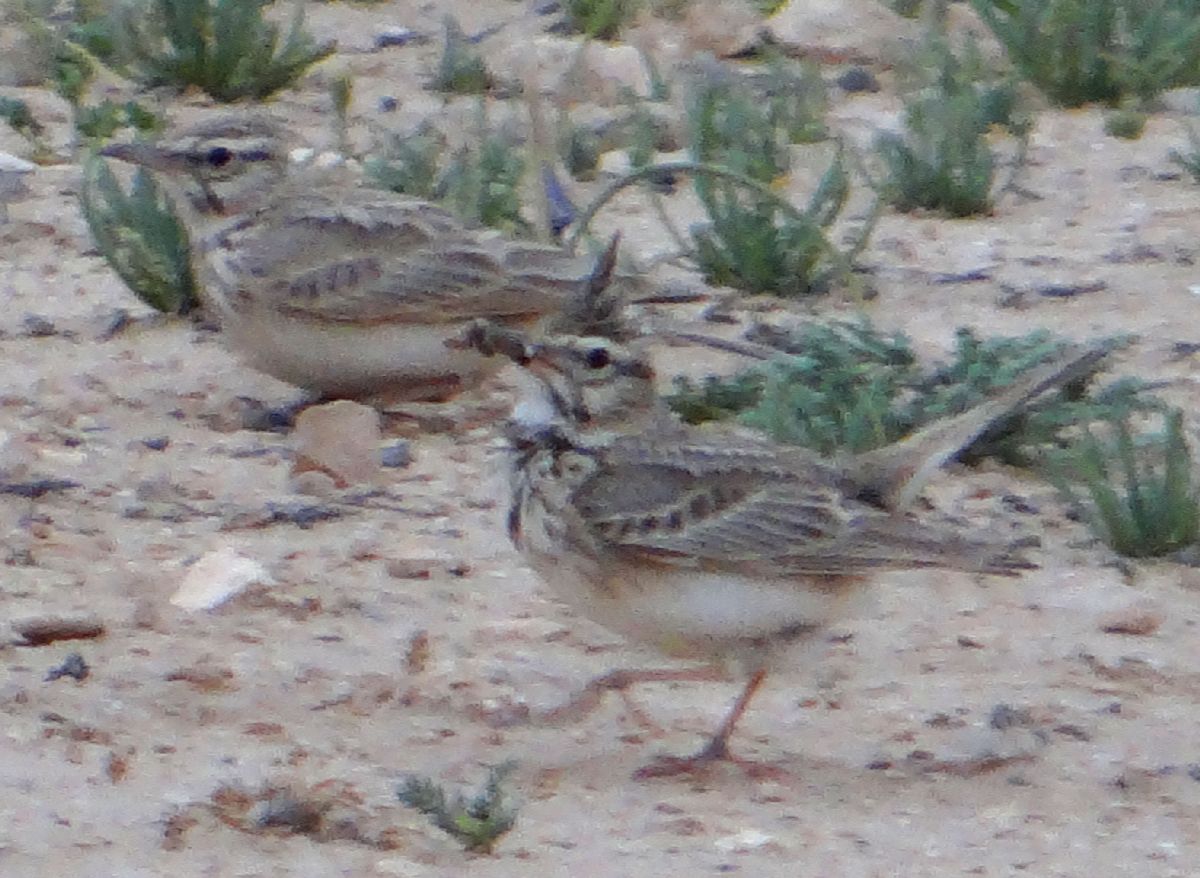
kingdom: Animalia
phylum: Chordata
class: Aves
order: Passeriformes
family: Alaudidae
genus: Galerida
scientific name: Galerida cristata
